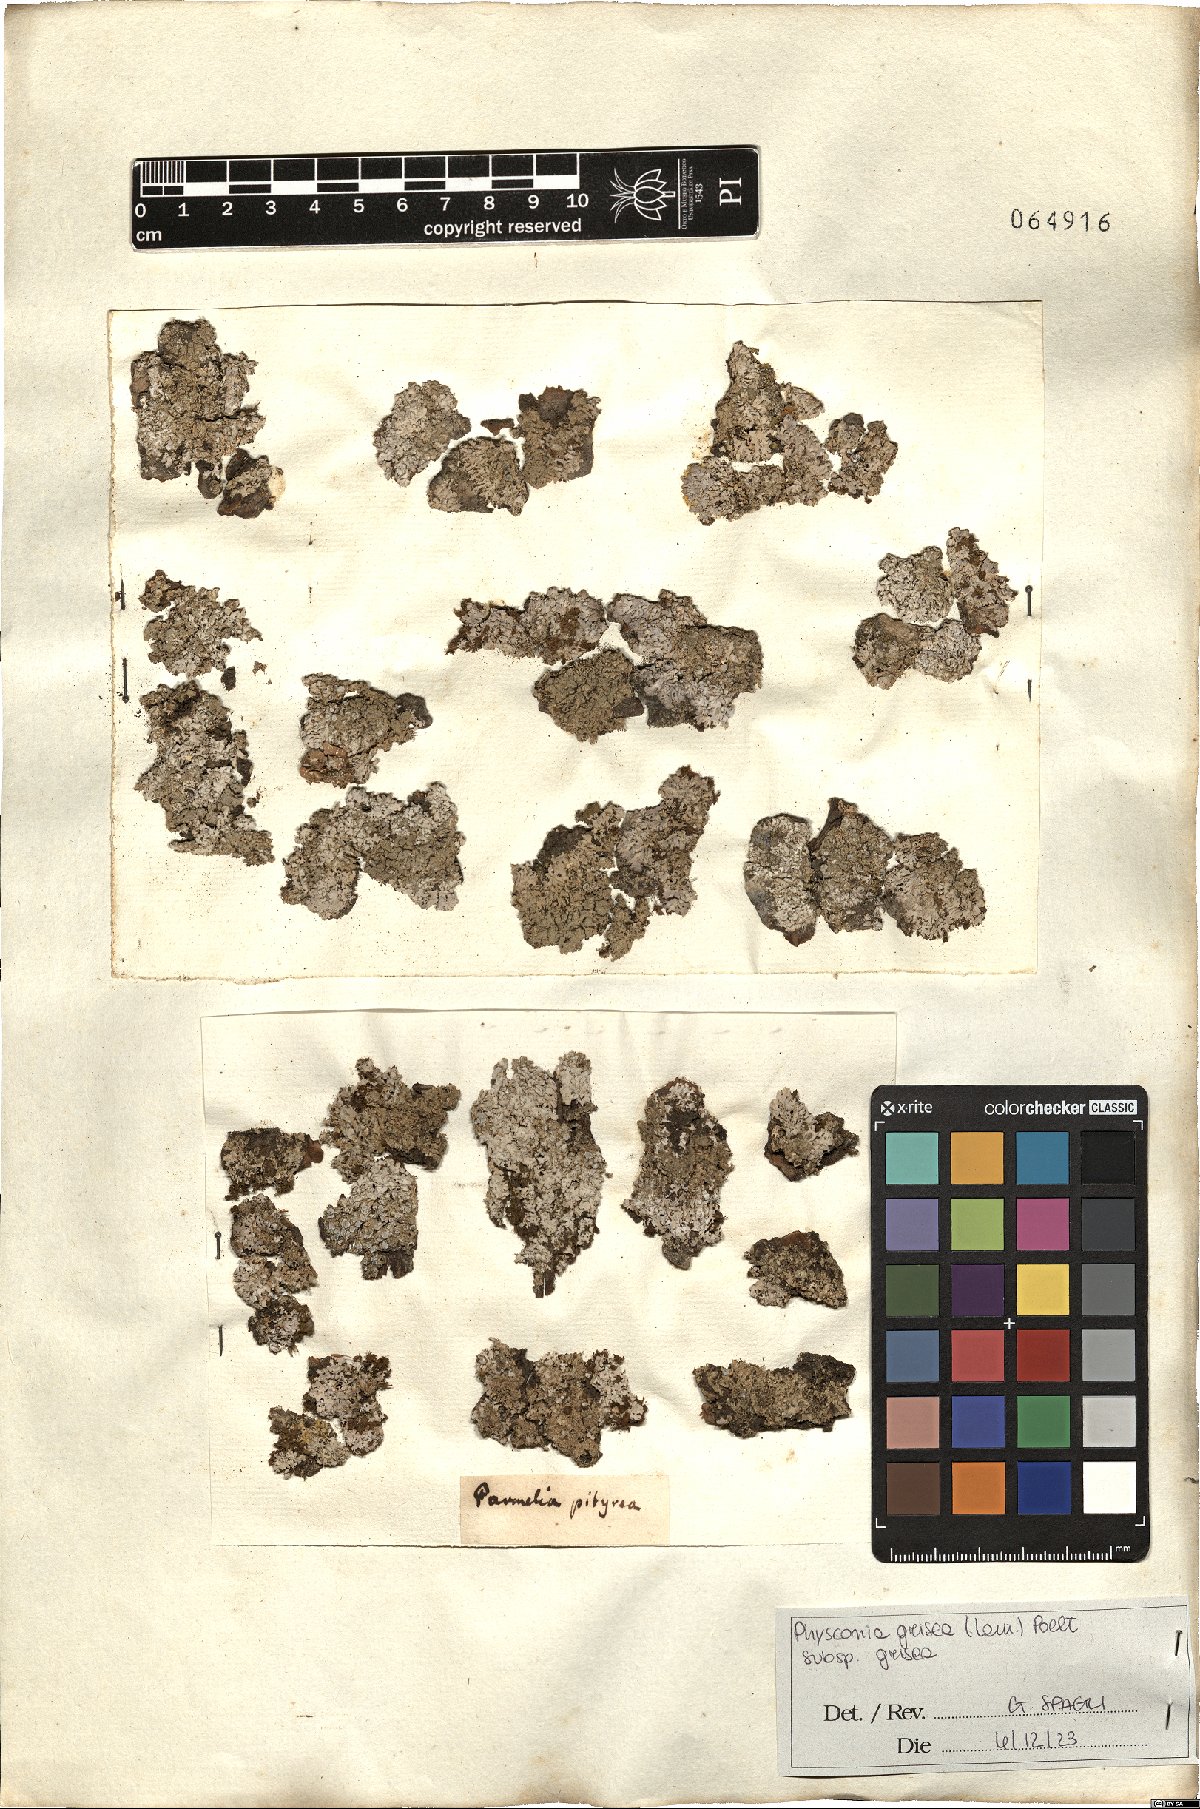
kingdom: Fungi
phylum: Ascomycota
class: Lecanoromycetes
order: Caliciales
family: Physciaceae
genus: Poeltonia
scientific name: Poeltonia grisea
